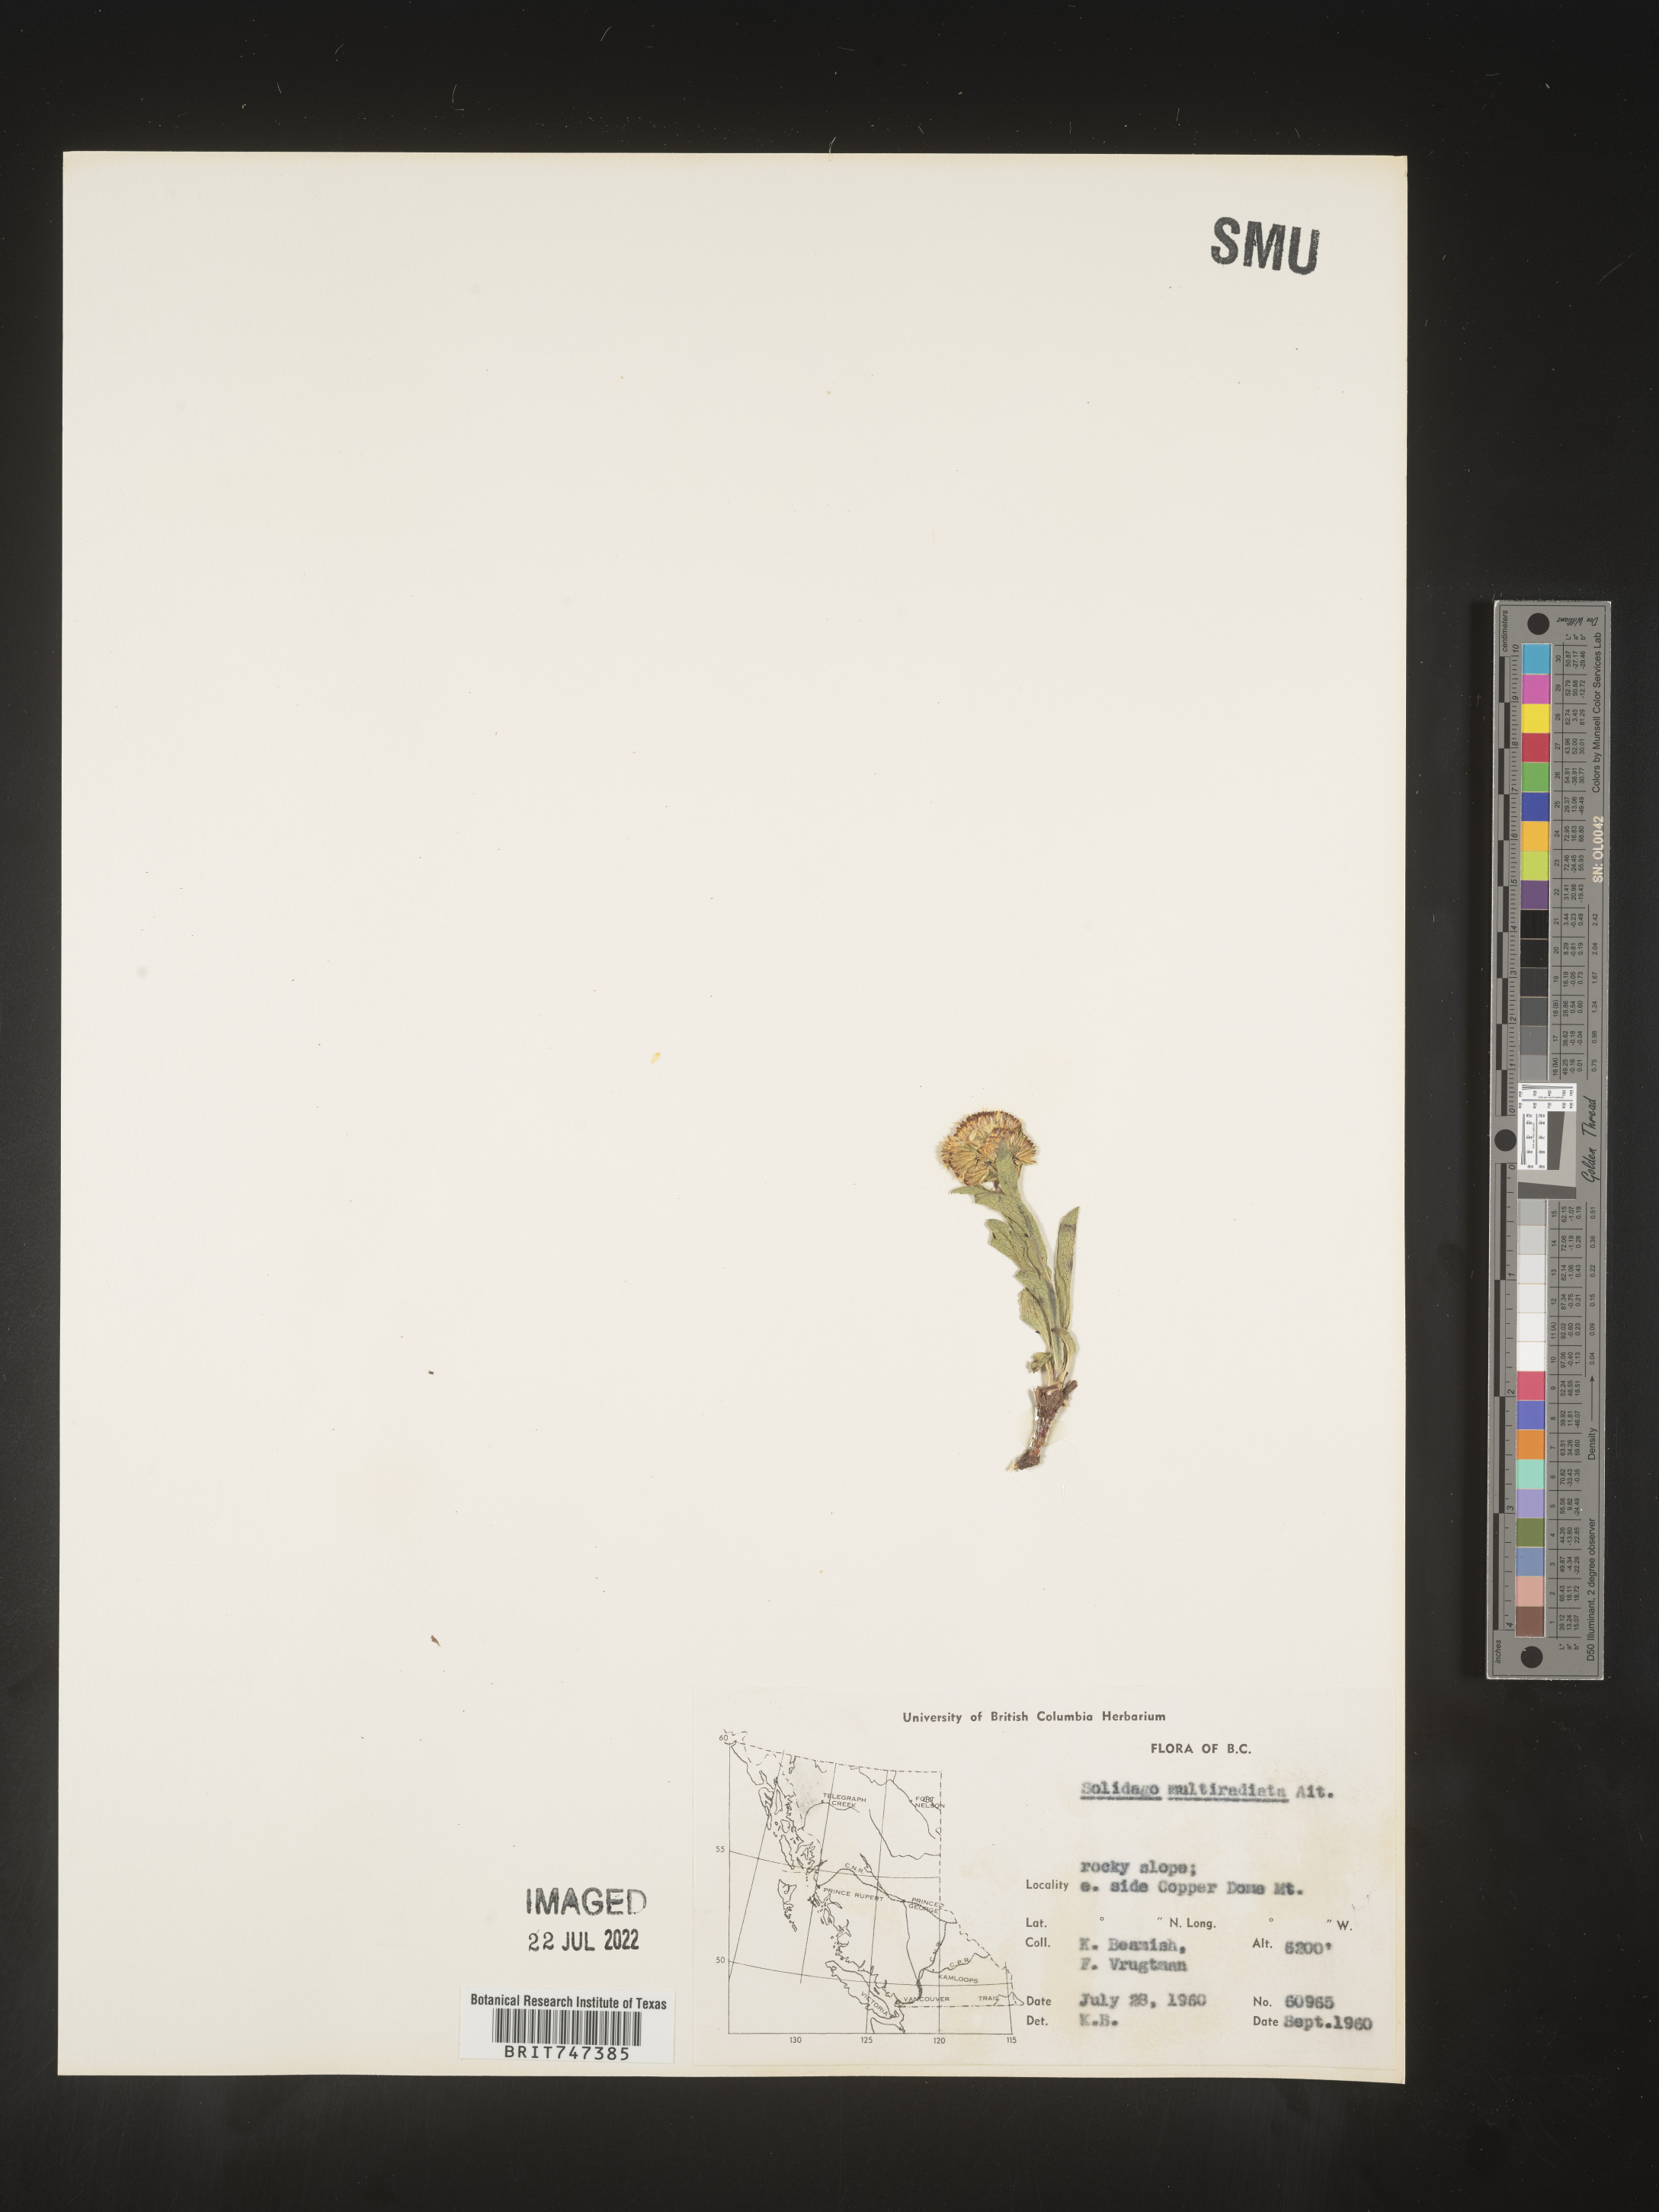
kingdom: Plantae
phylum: Tracheophyta
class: Magnoliopsida
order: Asterales
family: Asteraceae
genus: Solidago
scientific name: Solidago multiradiata
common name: Northern goldenrod
